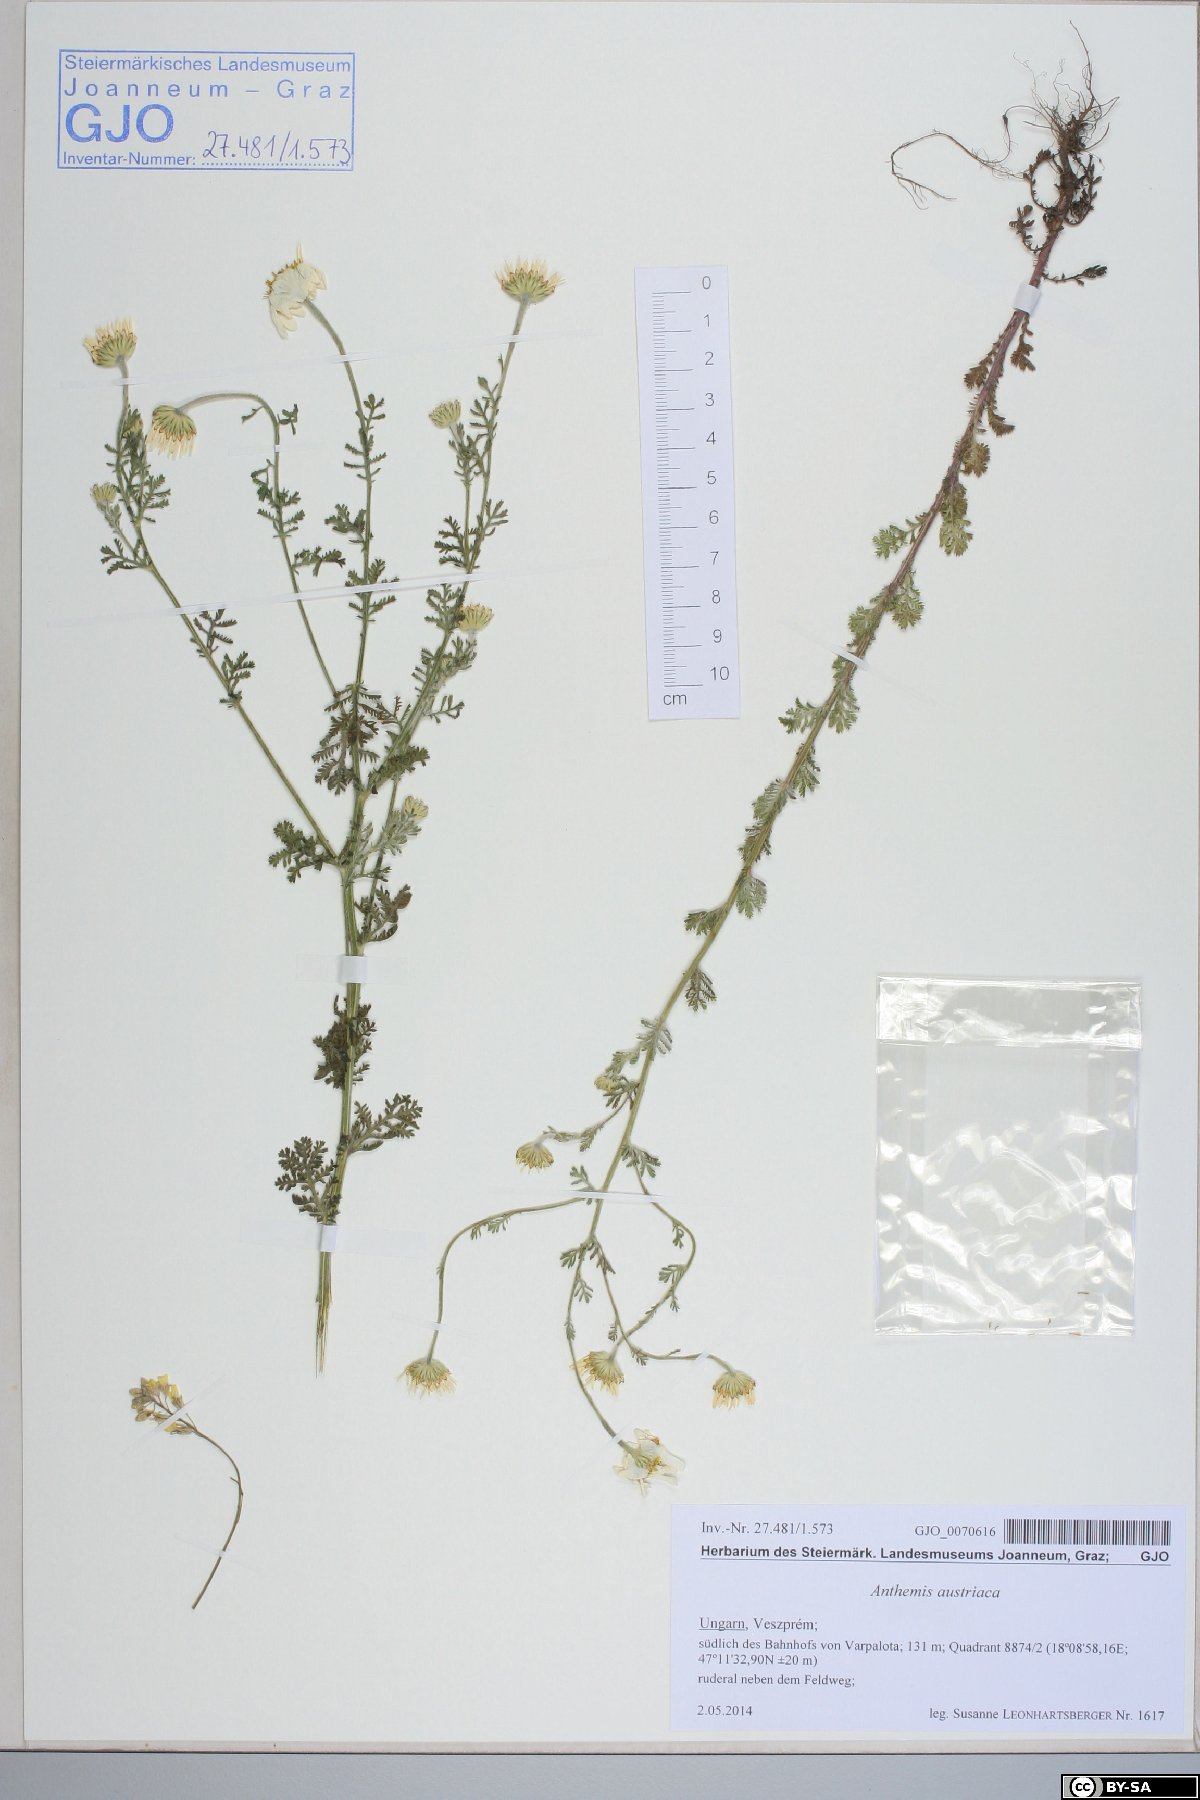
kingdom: Plantae
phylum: Tracheophyta
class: Magnoliopsida
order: Asterales
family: Asteraceae
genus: Cota
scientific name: Cota austriaca
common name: Austrian chamomile
